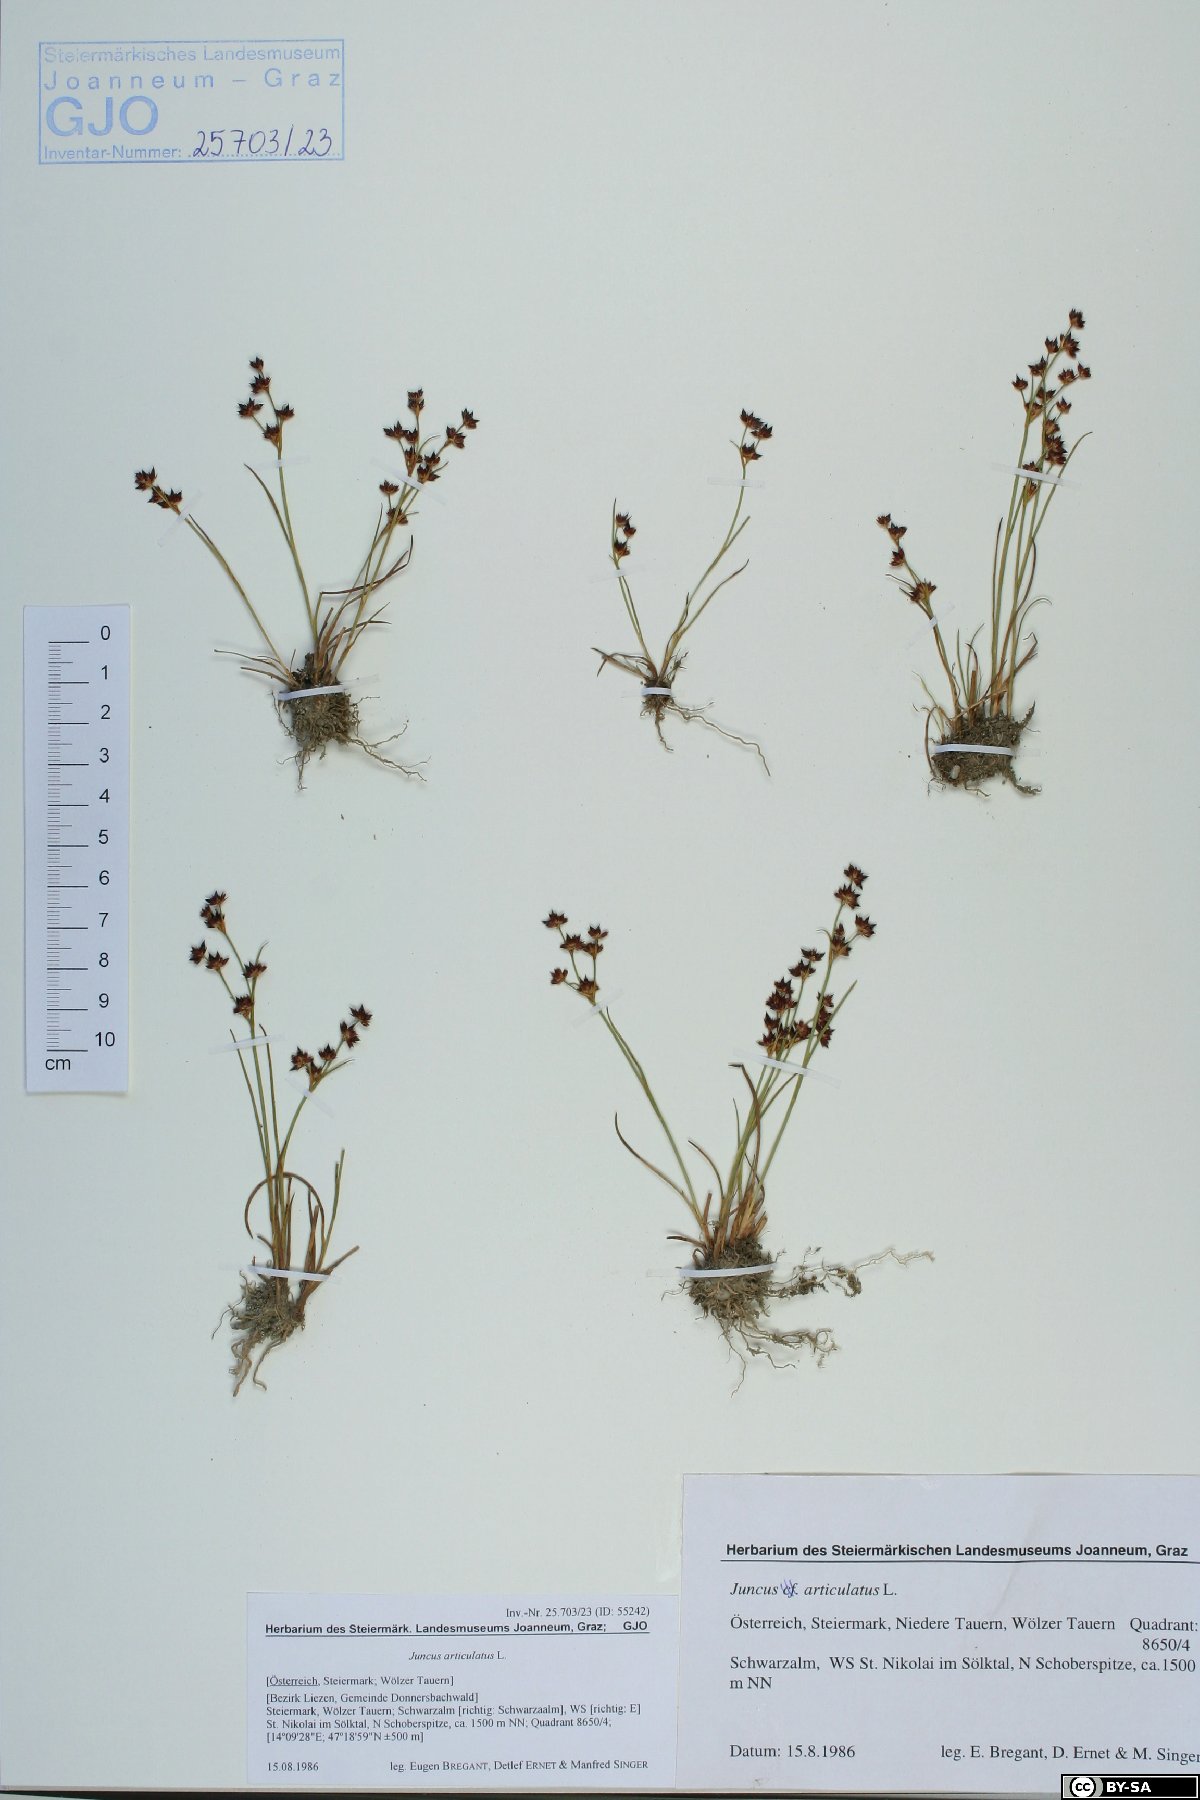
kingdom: Plantae
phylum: Tracheophyta
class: Liliopsida
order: Poales
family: Juncaceae
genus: Juncus
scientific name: Juncus articulatus
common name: Jointed rush
